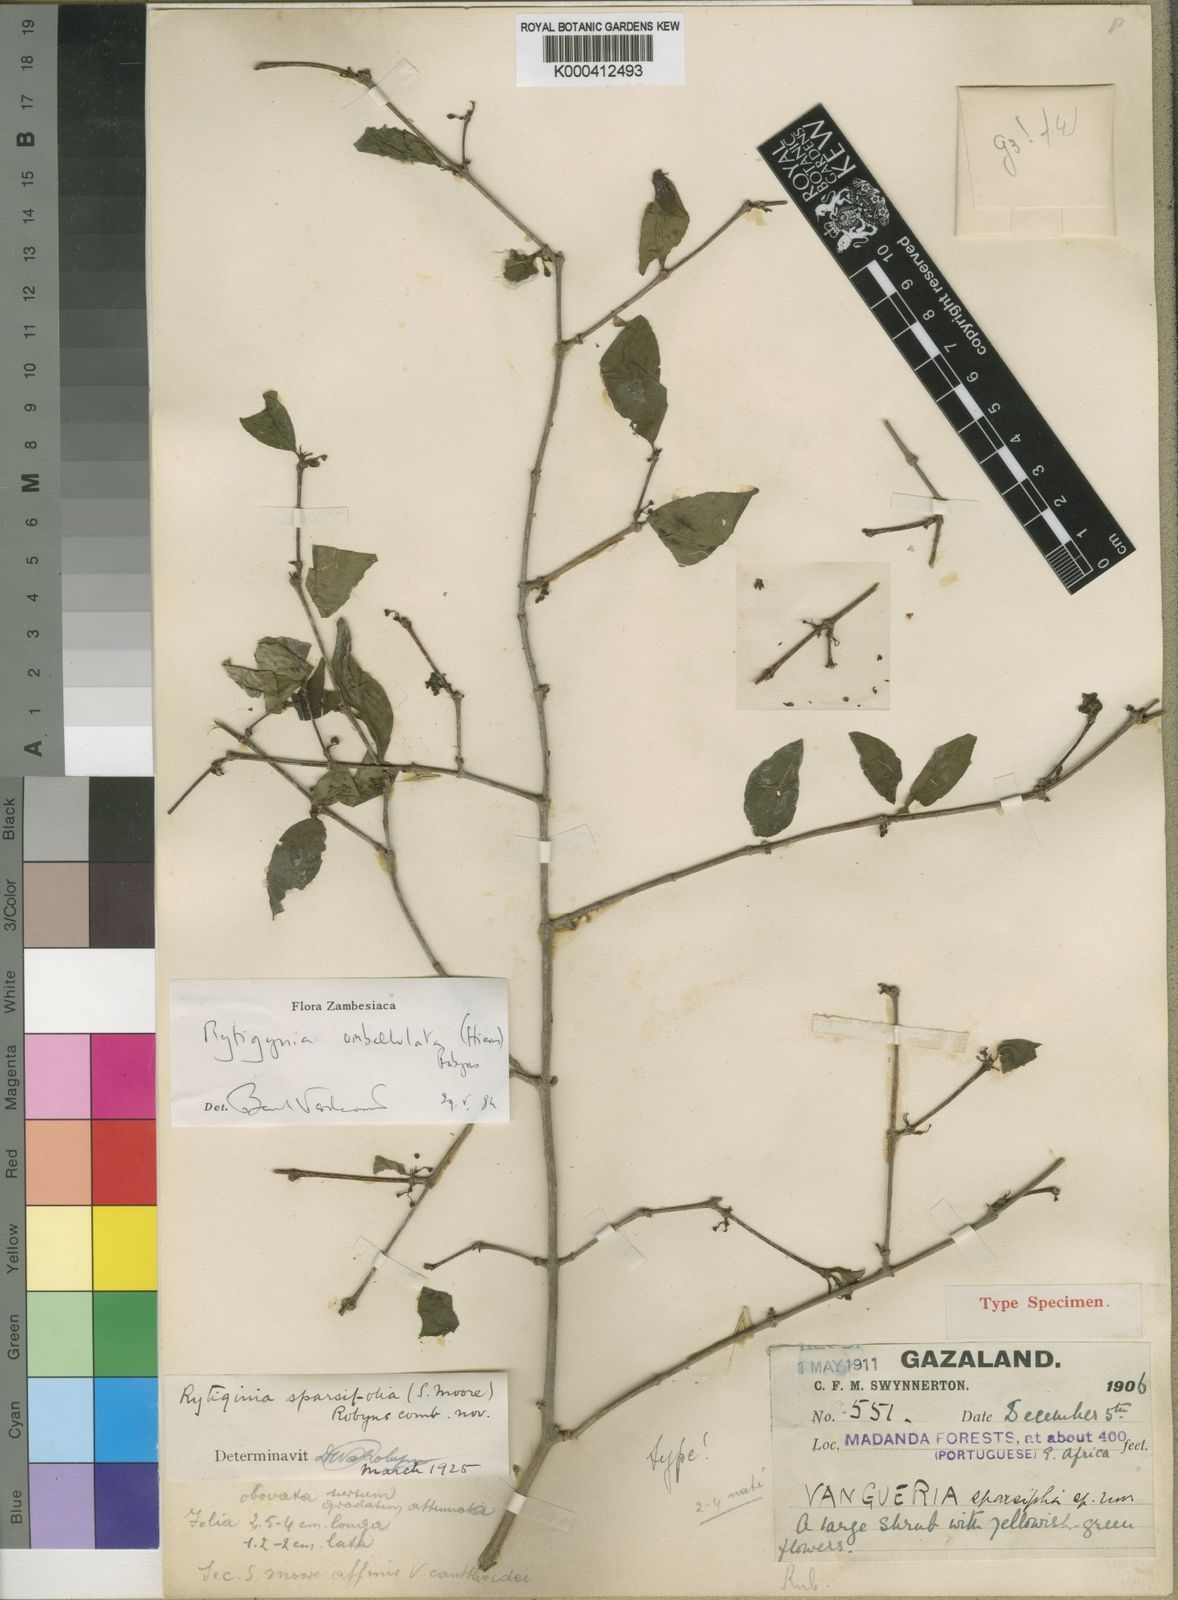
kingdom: Plantae
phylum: Tracheophyta
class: Magnoliopsida
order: Gentianales
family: Rubiaceae
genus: Rytigynia
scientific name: Rytigynia umbellulata
